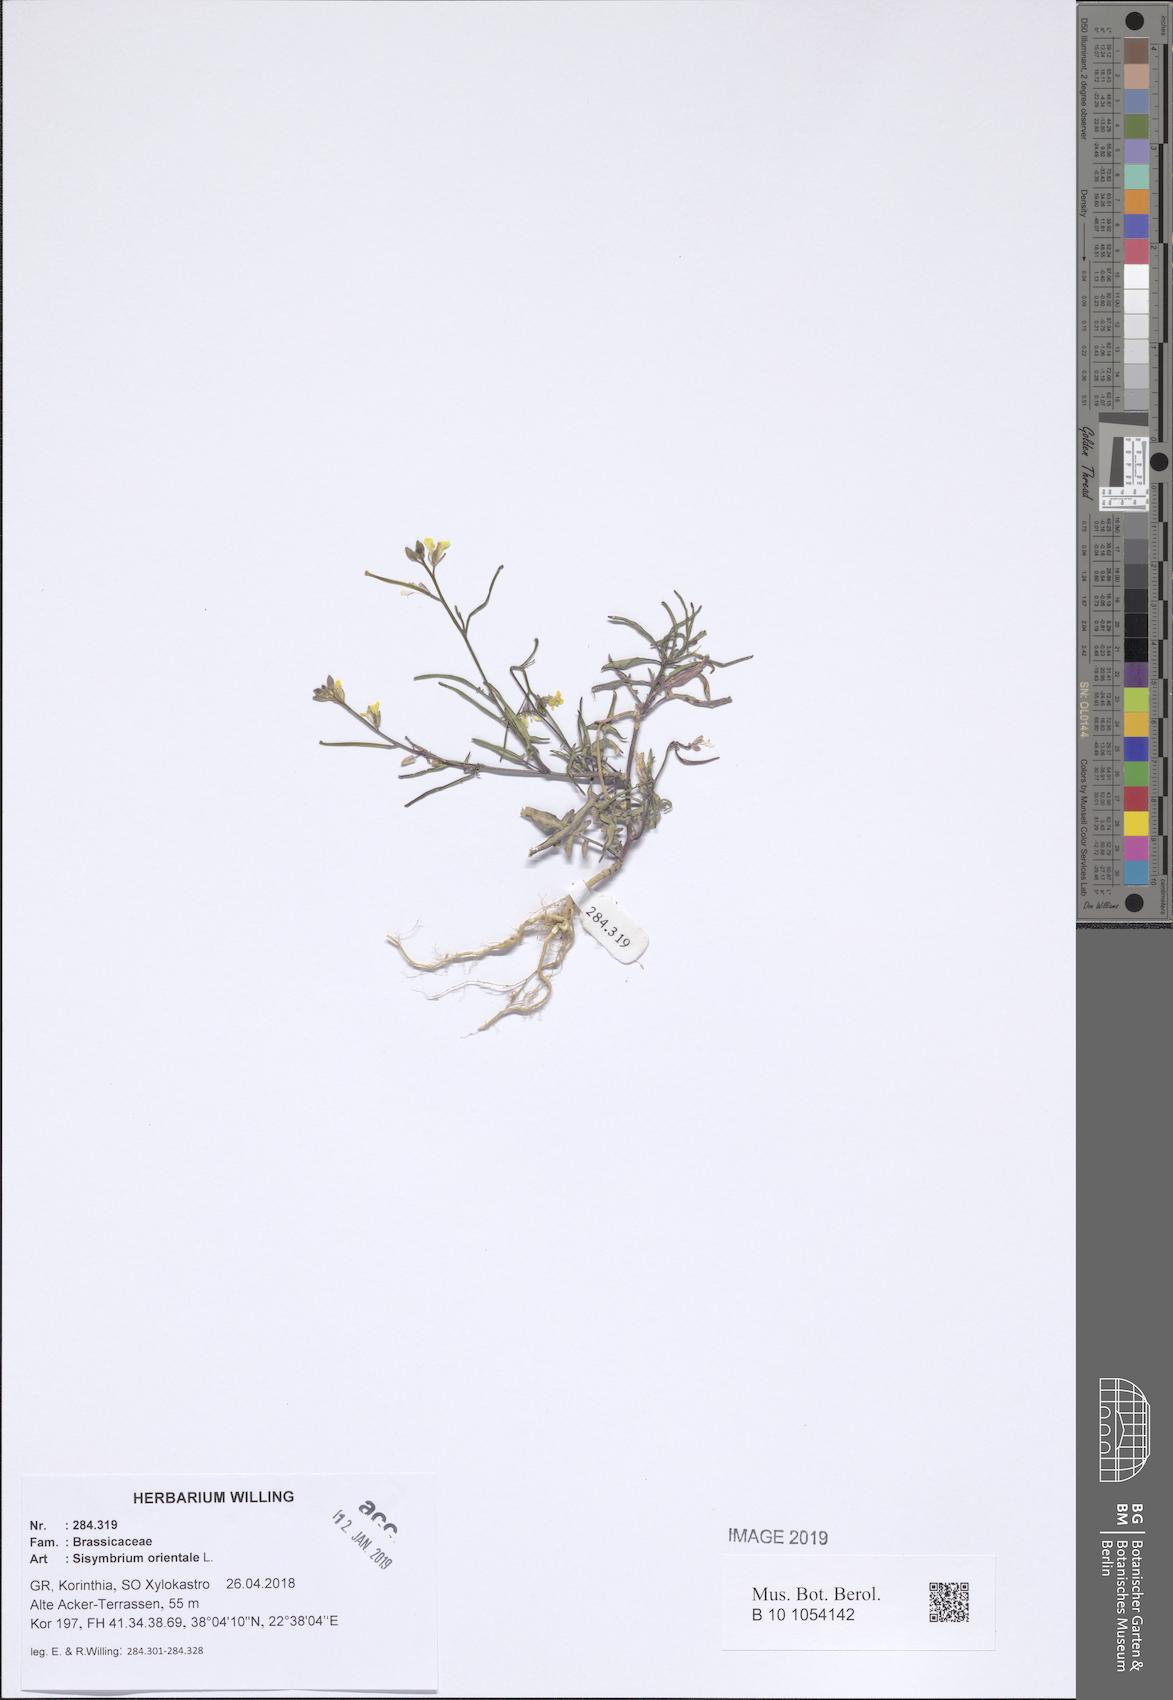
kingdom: Plantae
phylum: Tracheophyta
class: Magnoliopsida
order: Brassicales
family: Brassicaceae
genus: Sisymbrium
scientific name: Sisymbrium orientale
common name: Eastern rocket
